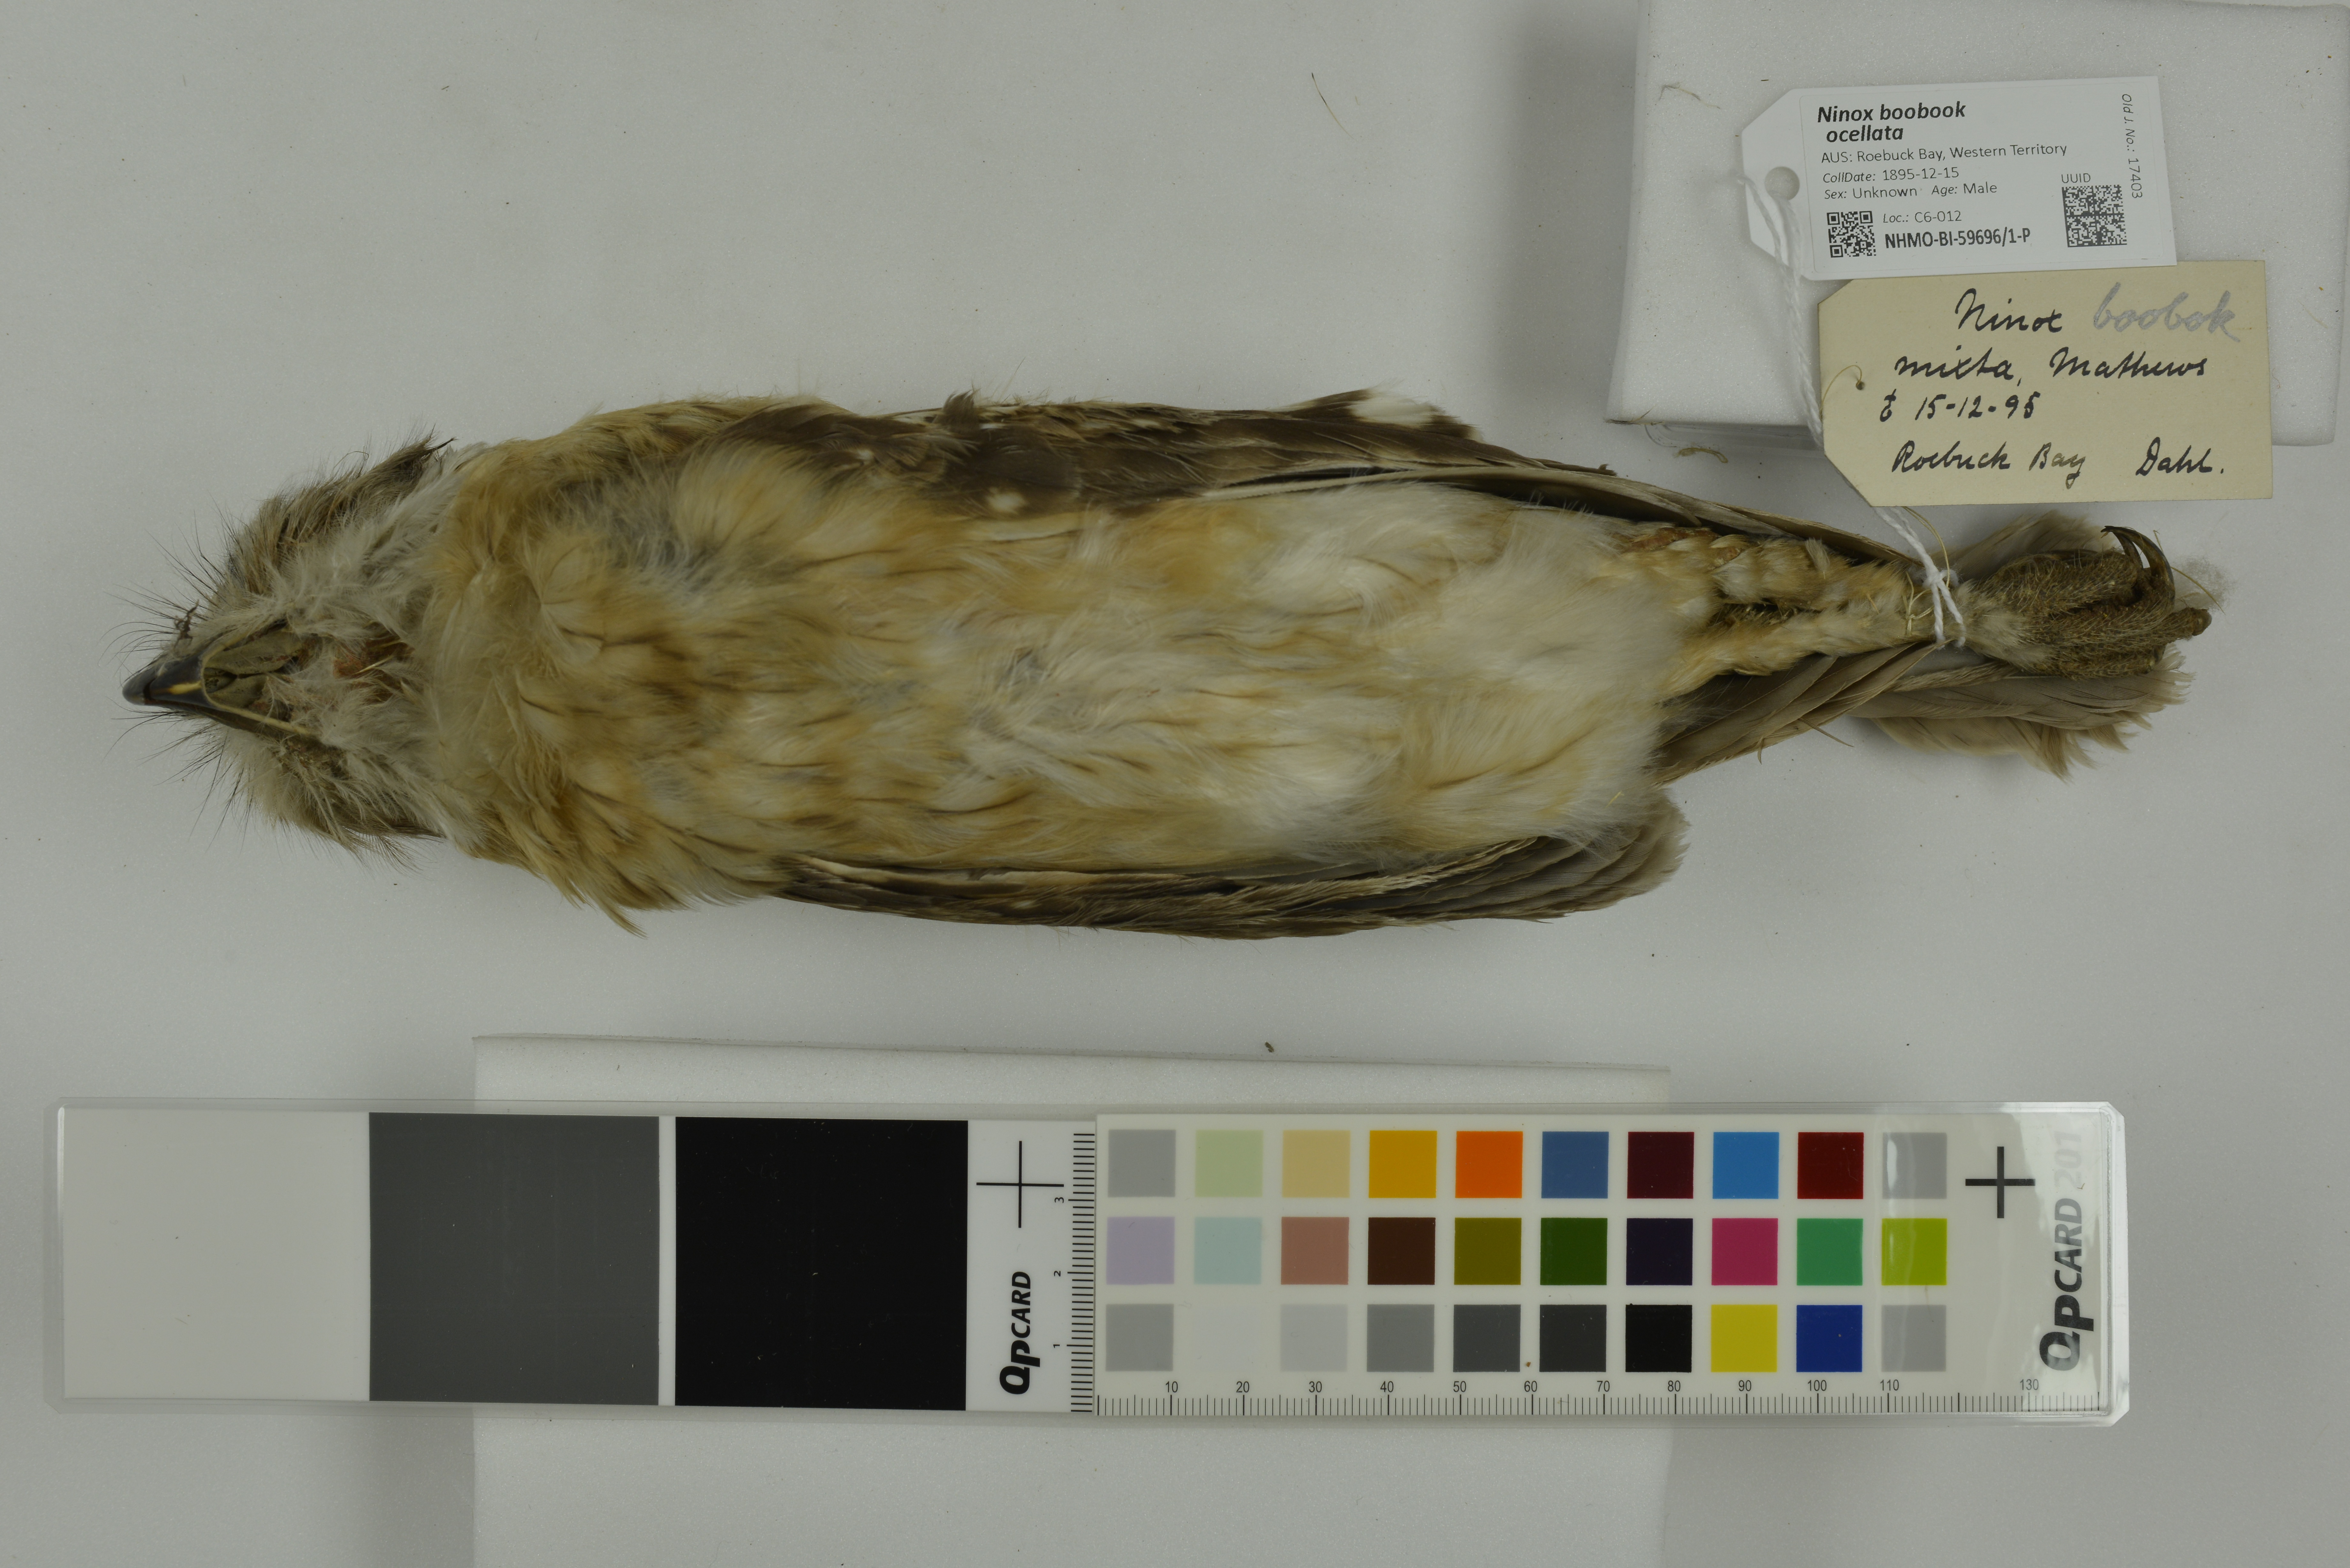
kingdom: Animalia
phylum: Chordata
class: Aves
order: Strigiformes
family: Strigidae
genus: Ninox
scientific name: Ninox boobook
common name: Southern boobook
